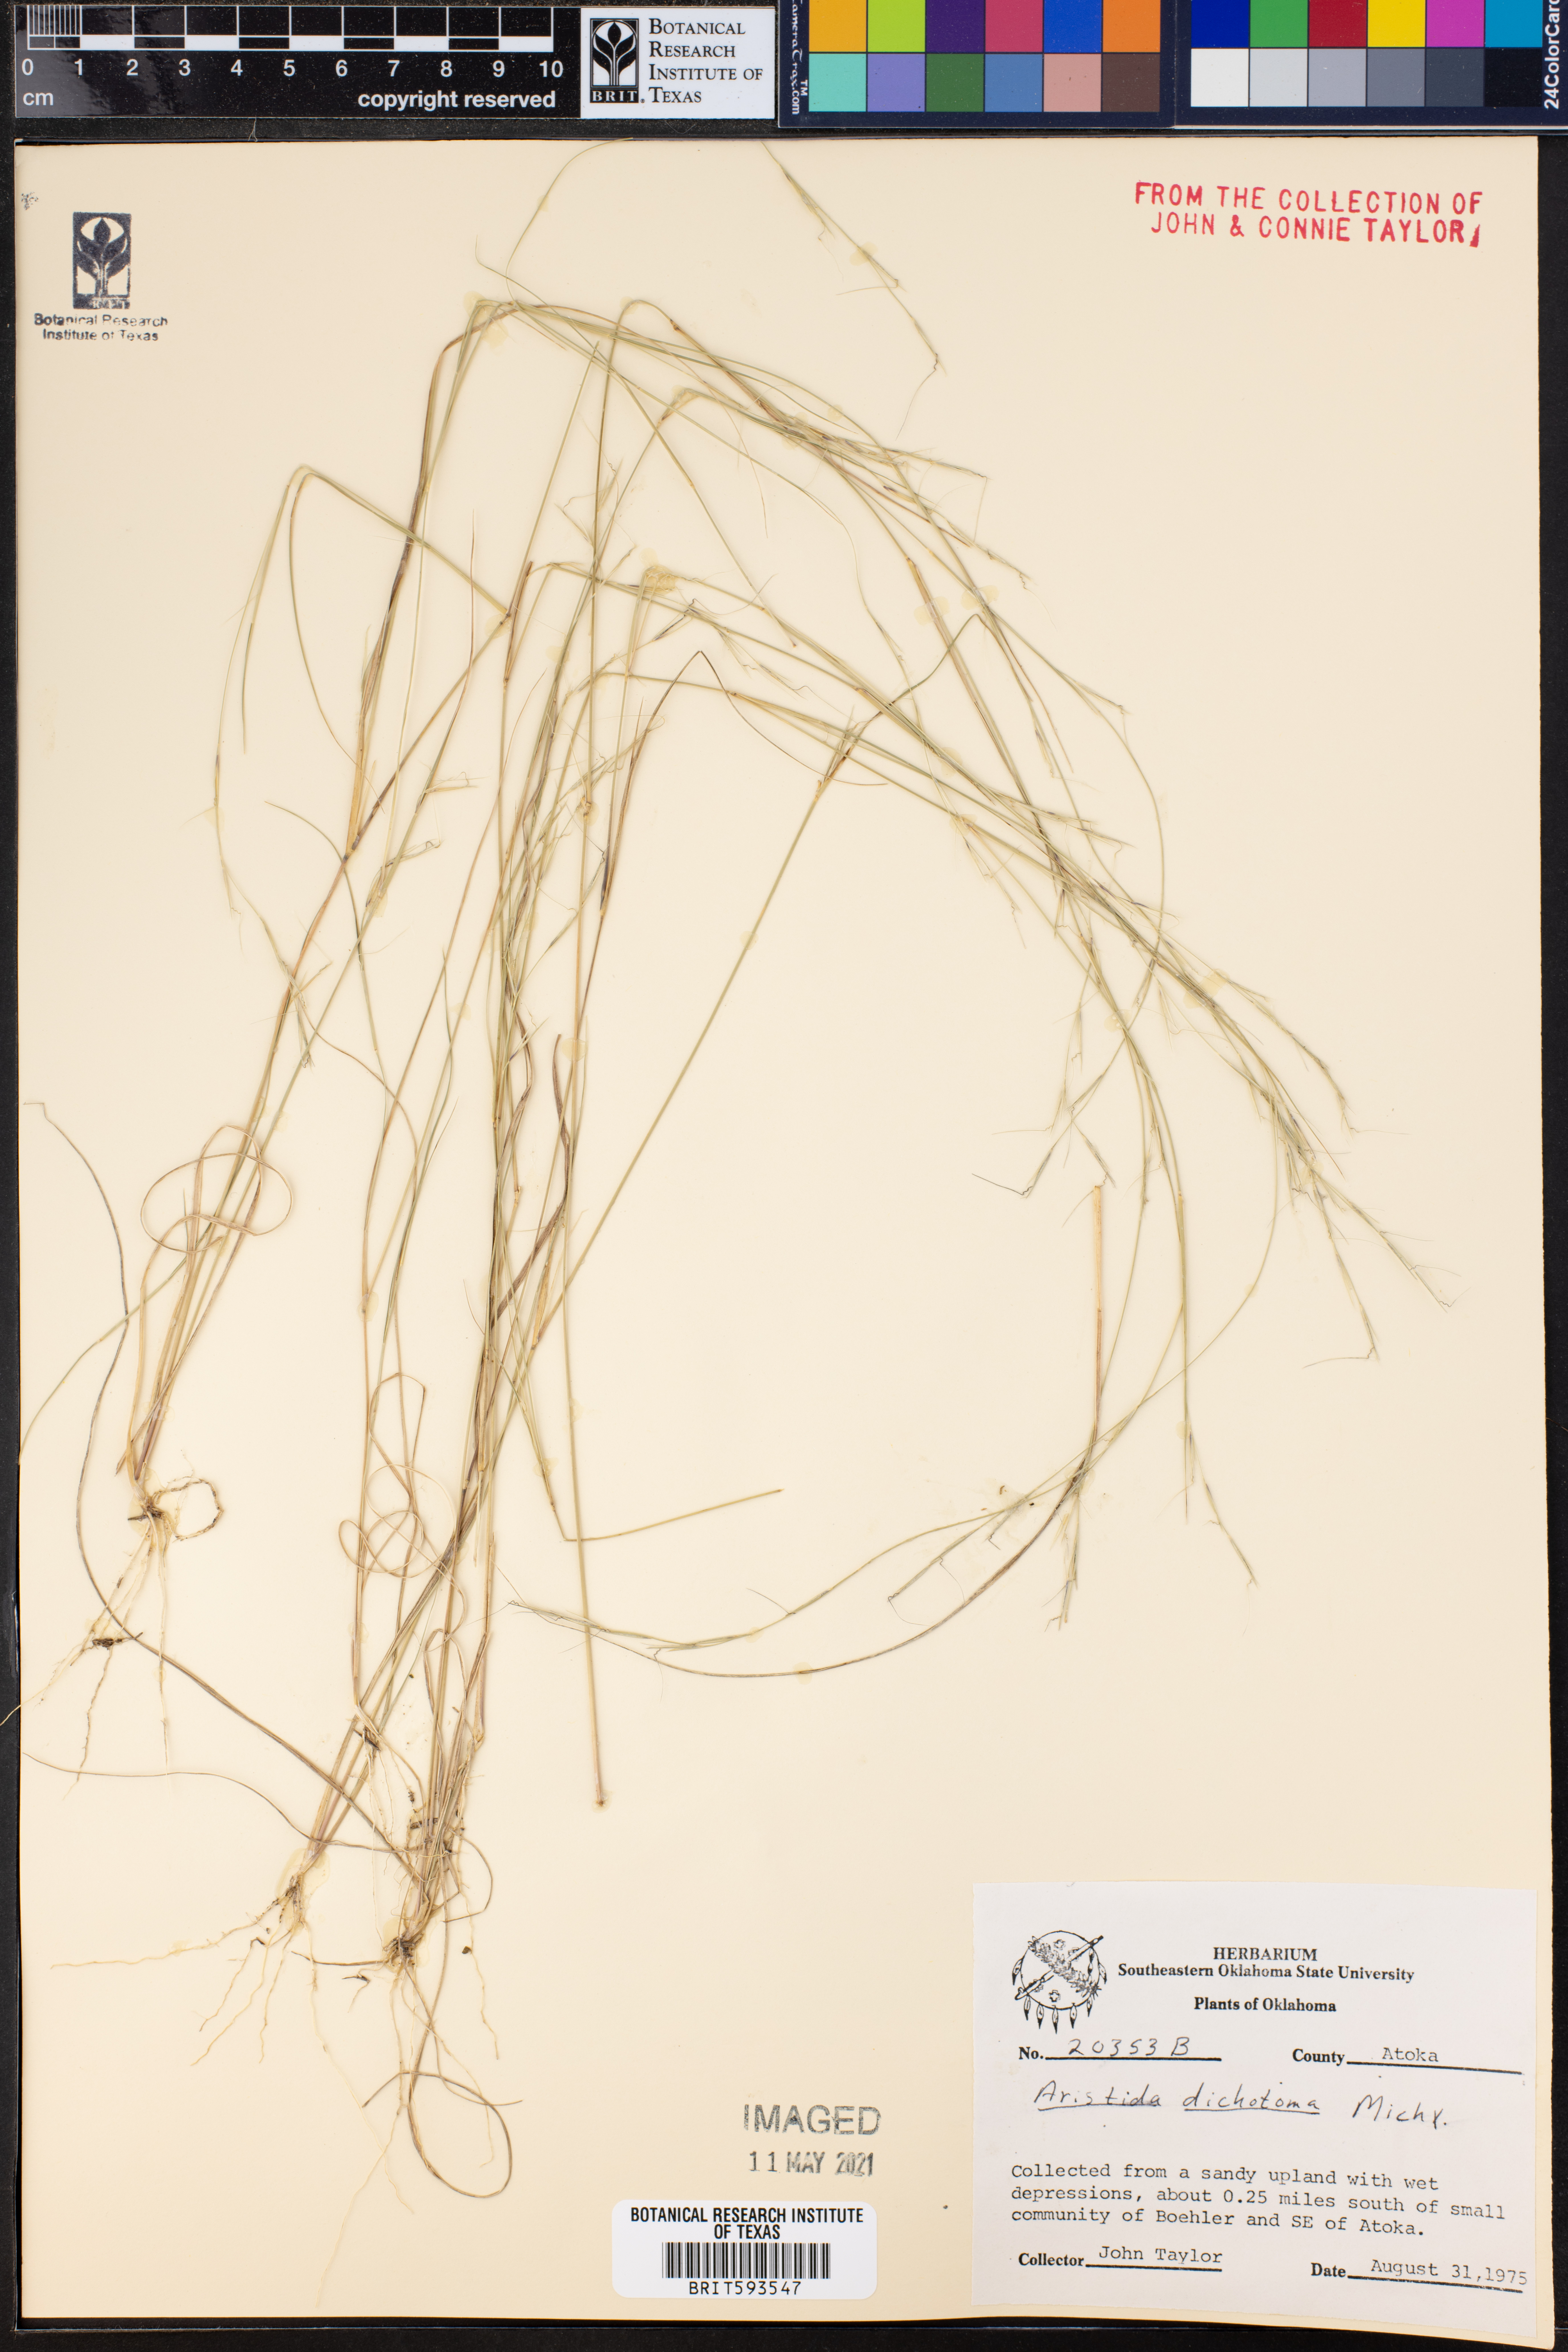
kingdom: Plantae
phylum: Tracheophyta
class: Liliopsida
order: Poales
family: Poaceae
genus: Aristida
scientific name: Aristida dichotoma
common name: Churchmouse three-awn
